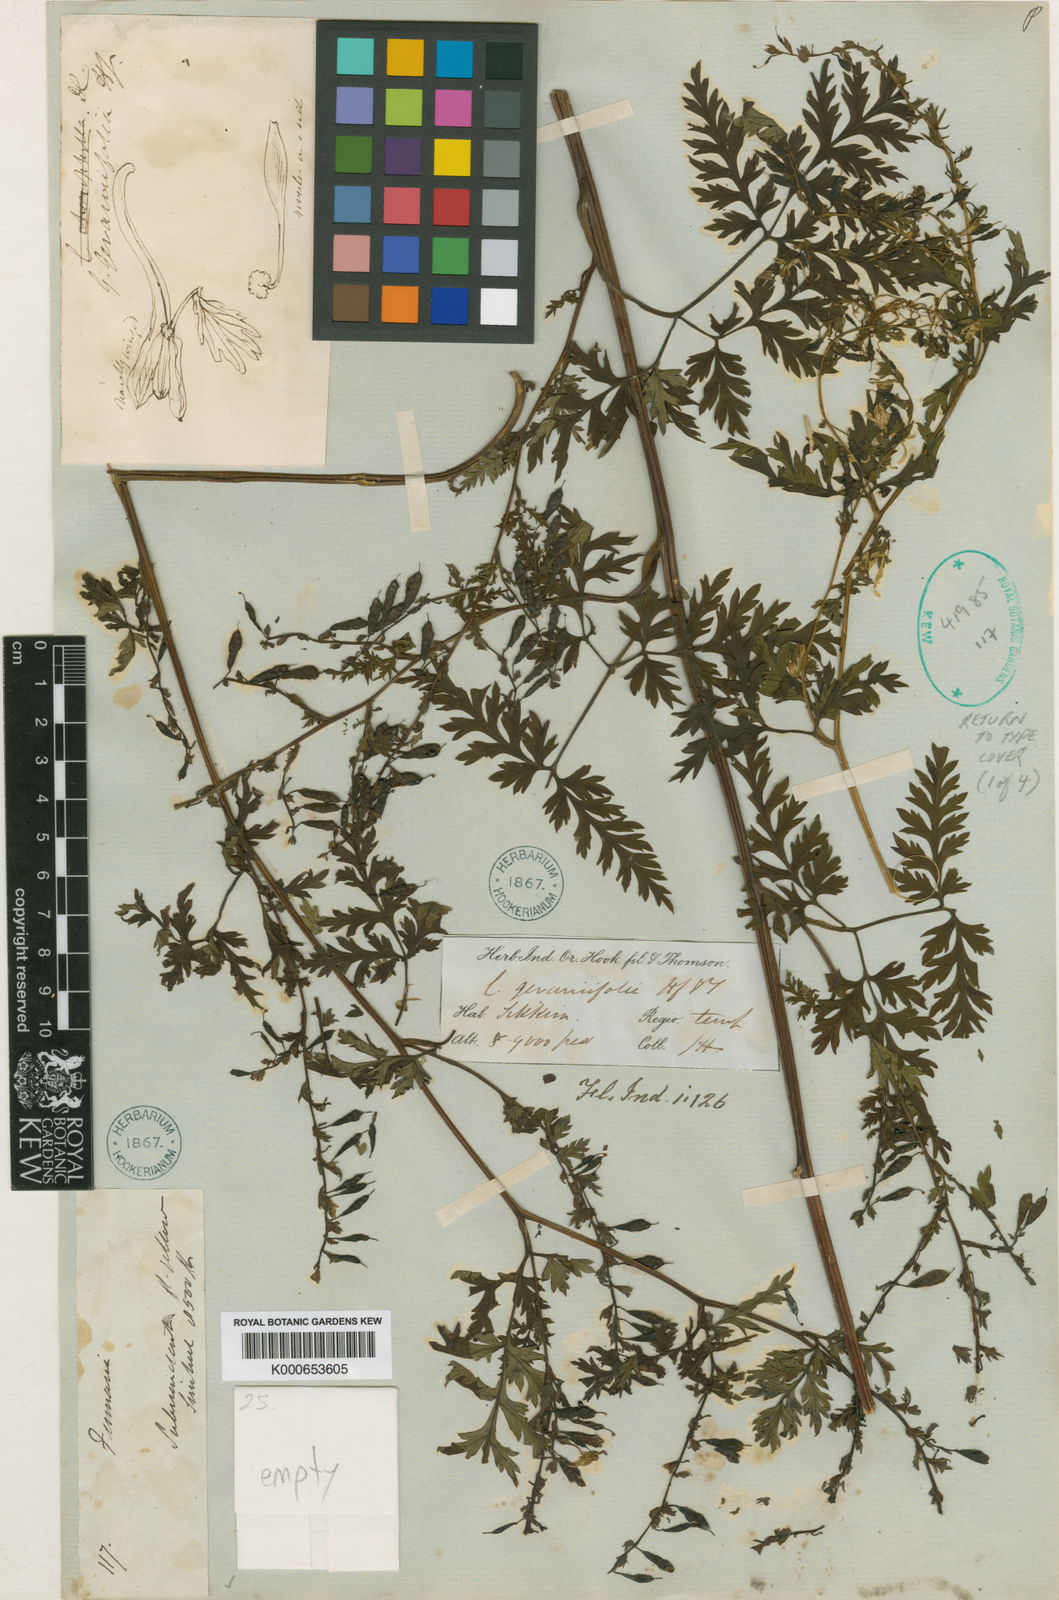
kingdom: Plantae
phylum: Tracheophyta
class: Magnoliopsida
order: Ranunculales
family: Papaveraceae
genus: Corydalis
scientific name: Corydalis geraniifolia
